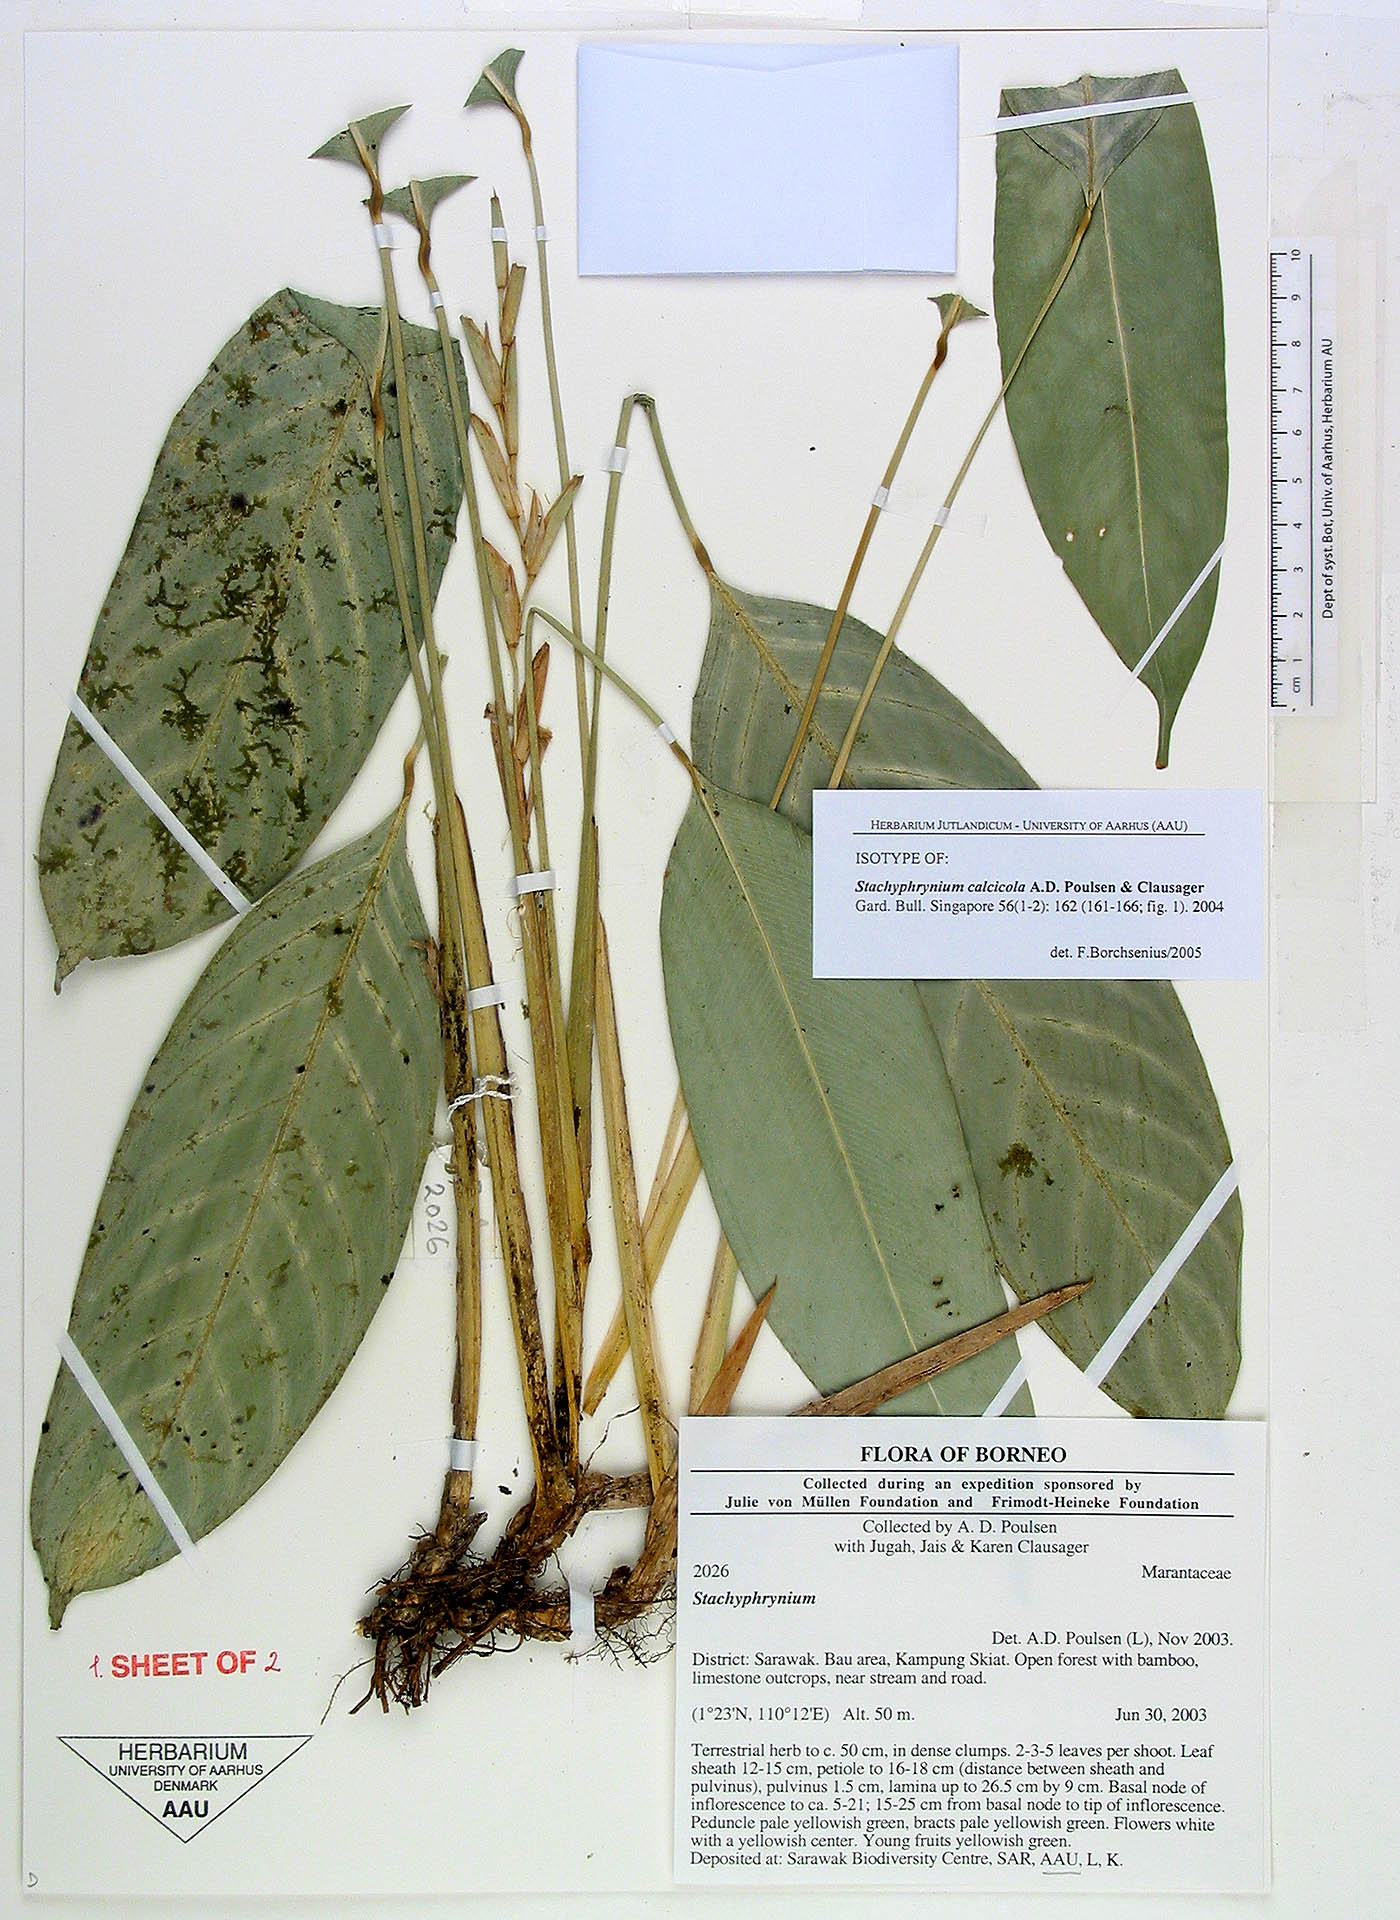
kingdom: Plantae
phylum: Tracheophyta
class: Liliopsida
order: Zingiberales
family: Marantaceae
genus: Stachyphrynium
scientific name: Stachyphrynium calcicola
